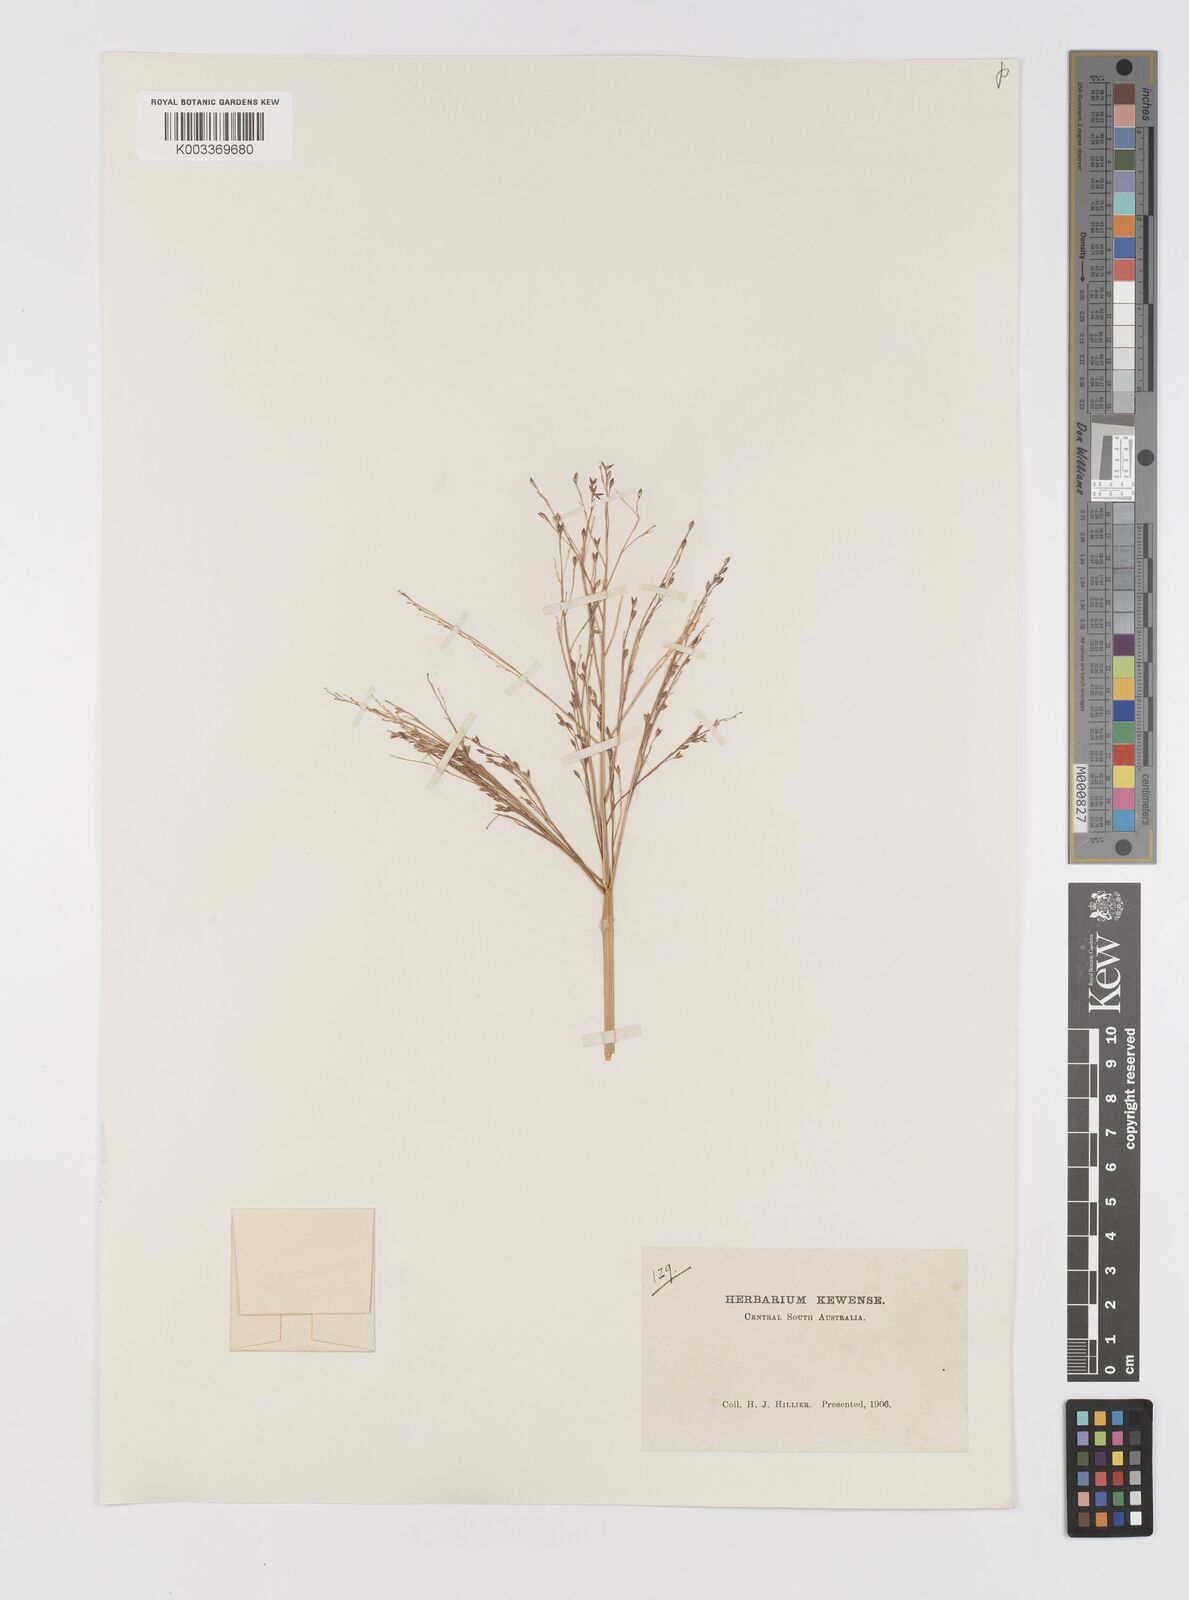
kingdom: Plantae
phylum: Tracheophyta
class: Liliopsida
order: Poales
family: Poaceae
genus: Panicum
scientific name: Panicum decompositum
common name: Australian millet
